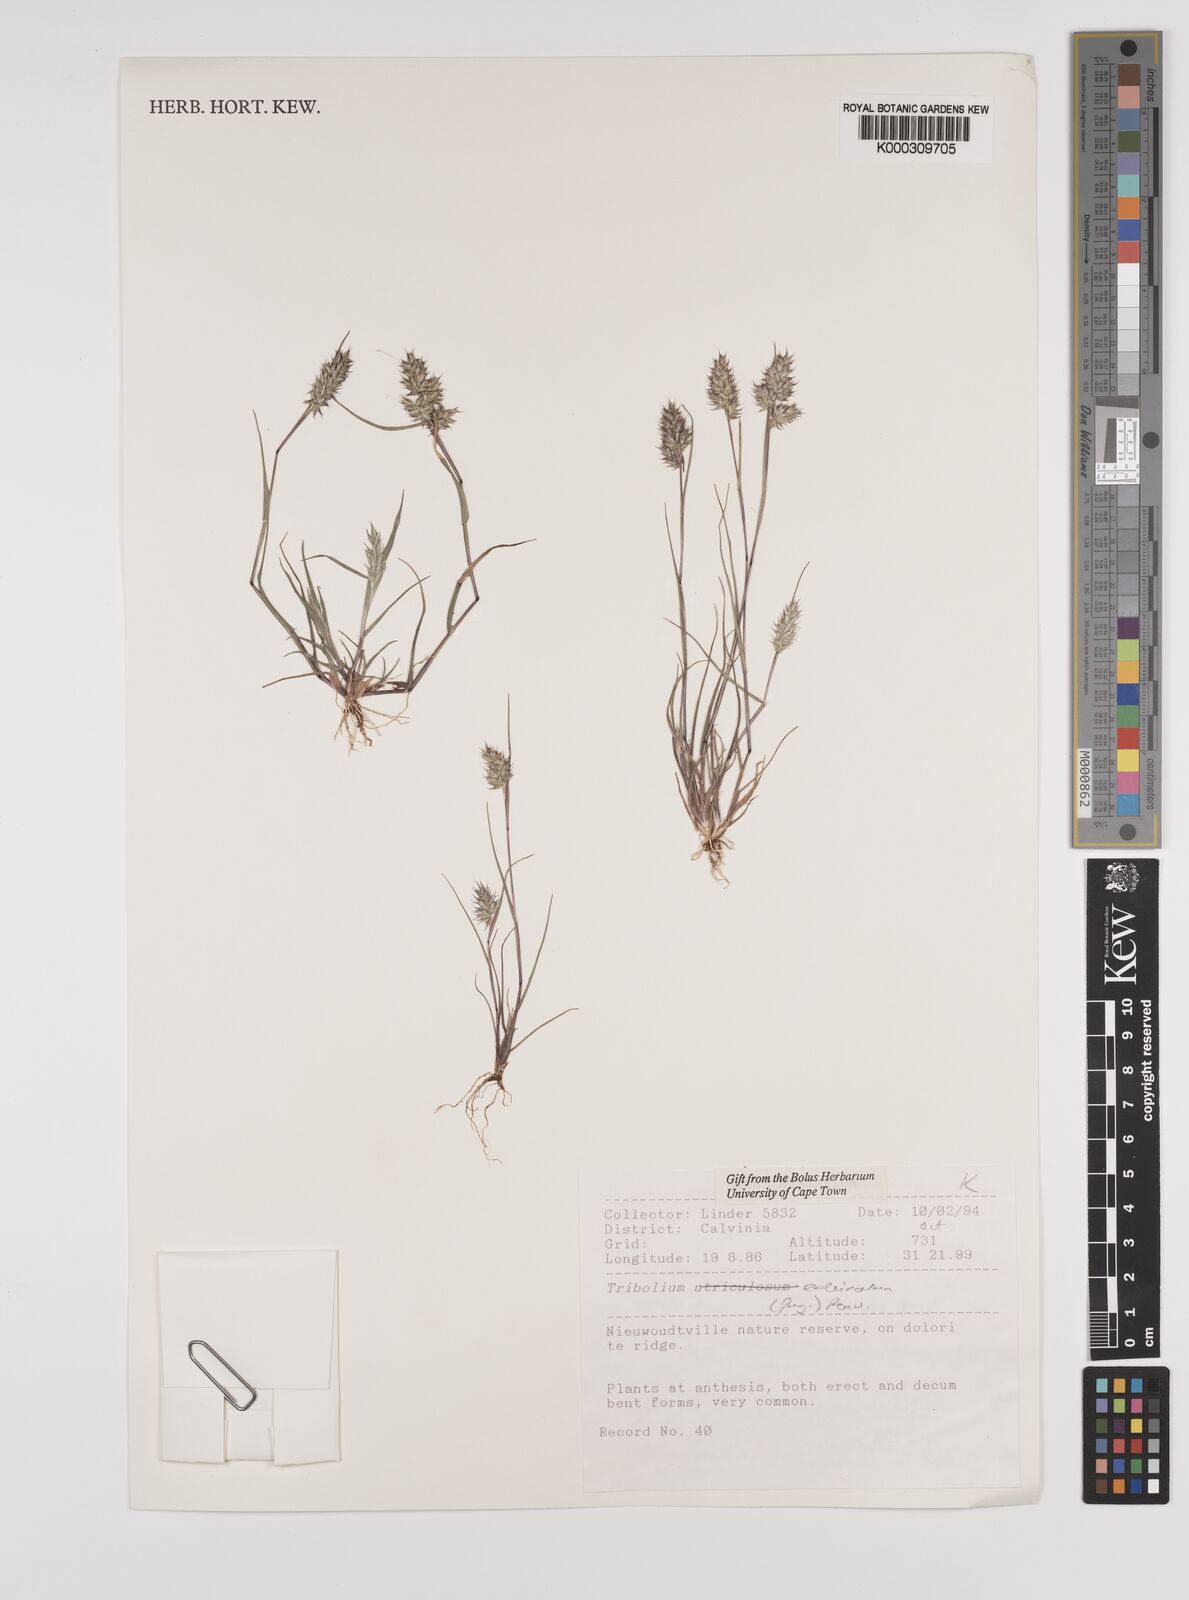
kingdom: Plantae
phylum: Tracheophyta
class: Liliopsida
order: Poales
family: Poaceae
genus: Tribolium
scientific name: Tribolium echinatum
